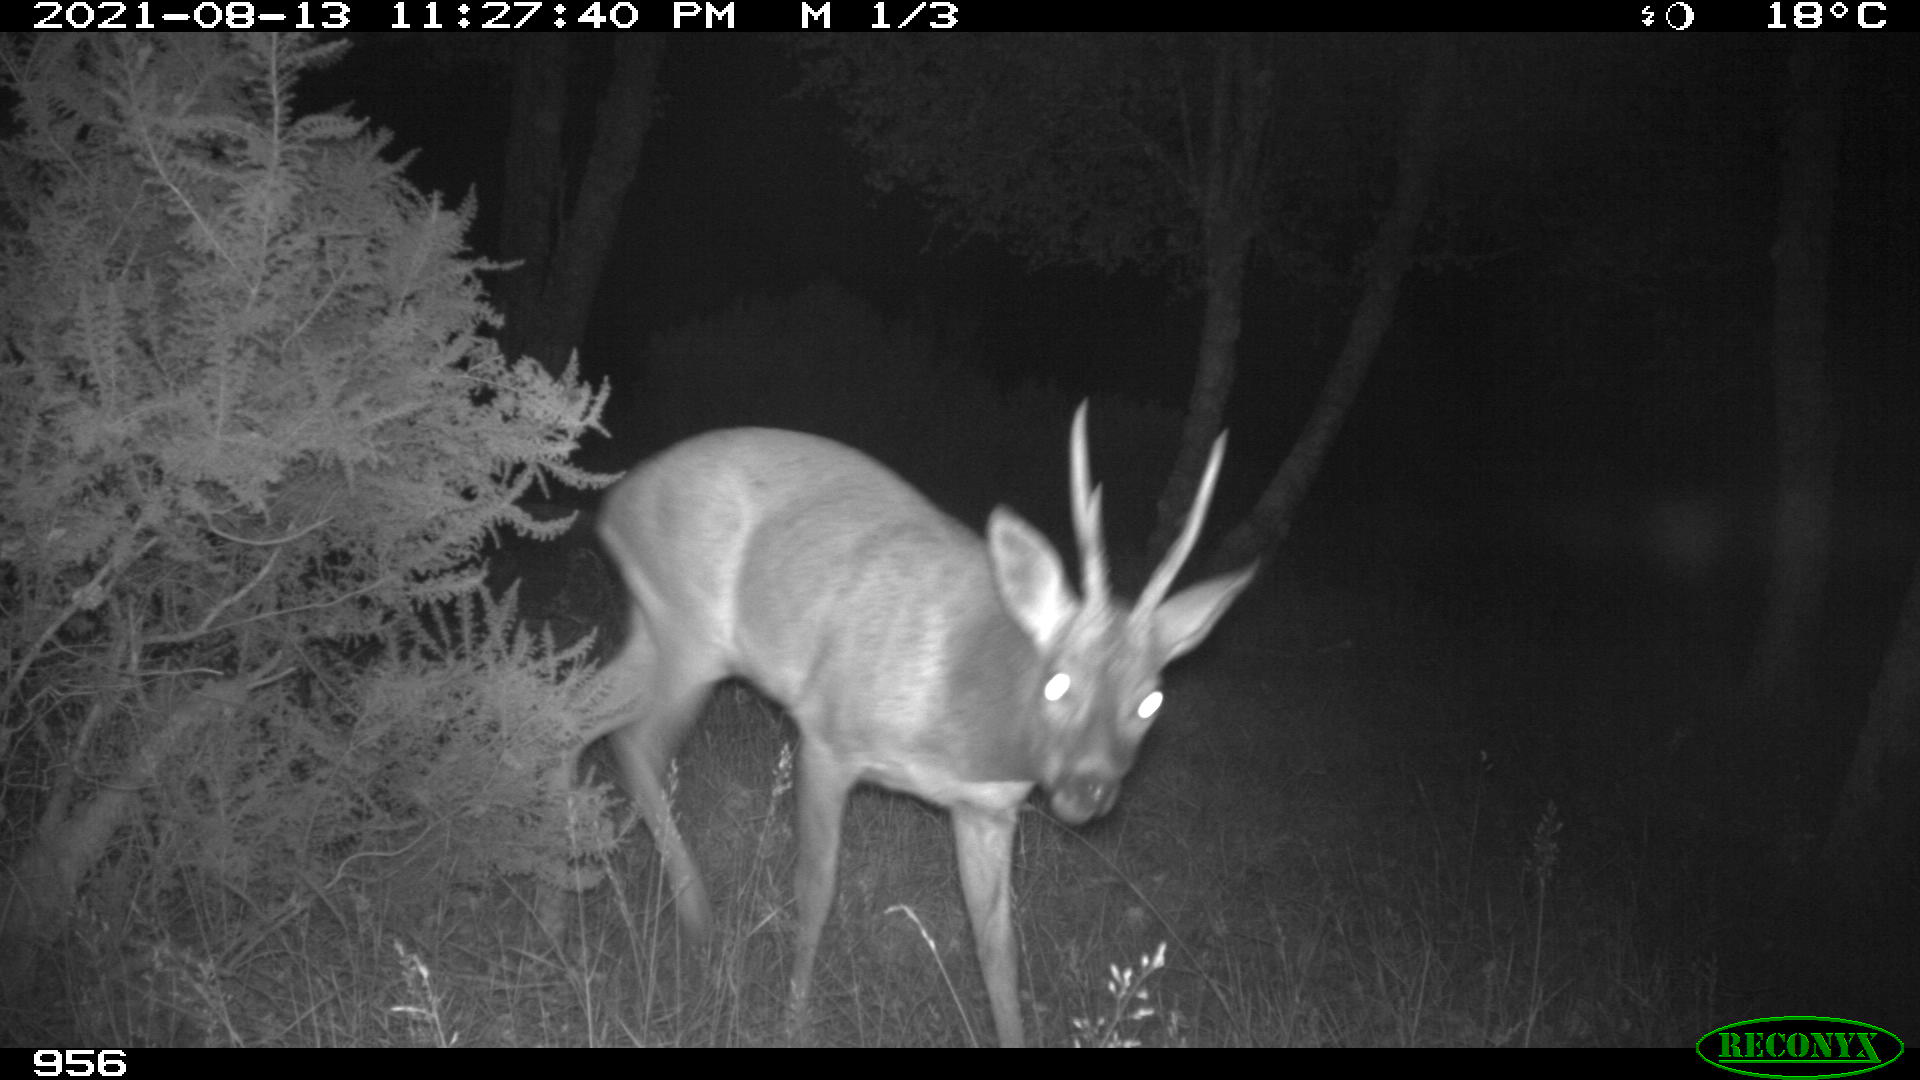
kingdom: Animalia
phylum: Chordata
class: Mammalia
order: Artiodactyla
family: Cervidae
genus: Capreolus
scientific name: Capreolus capreolus
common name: Western roe deer
